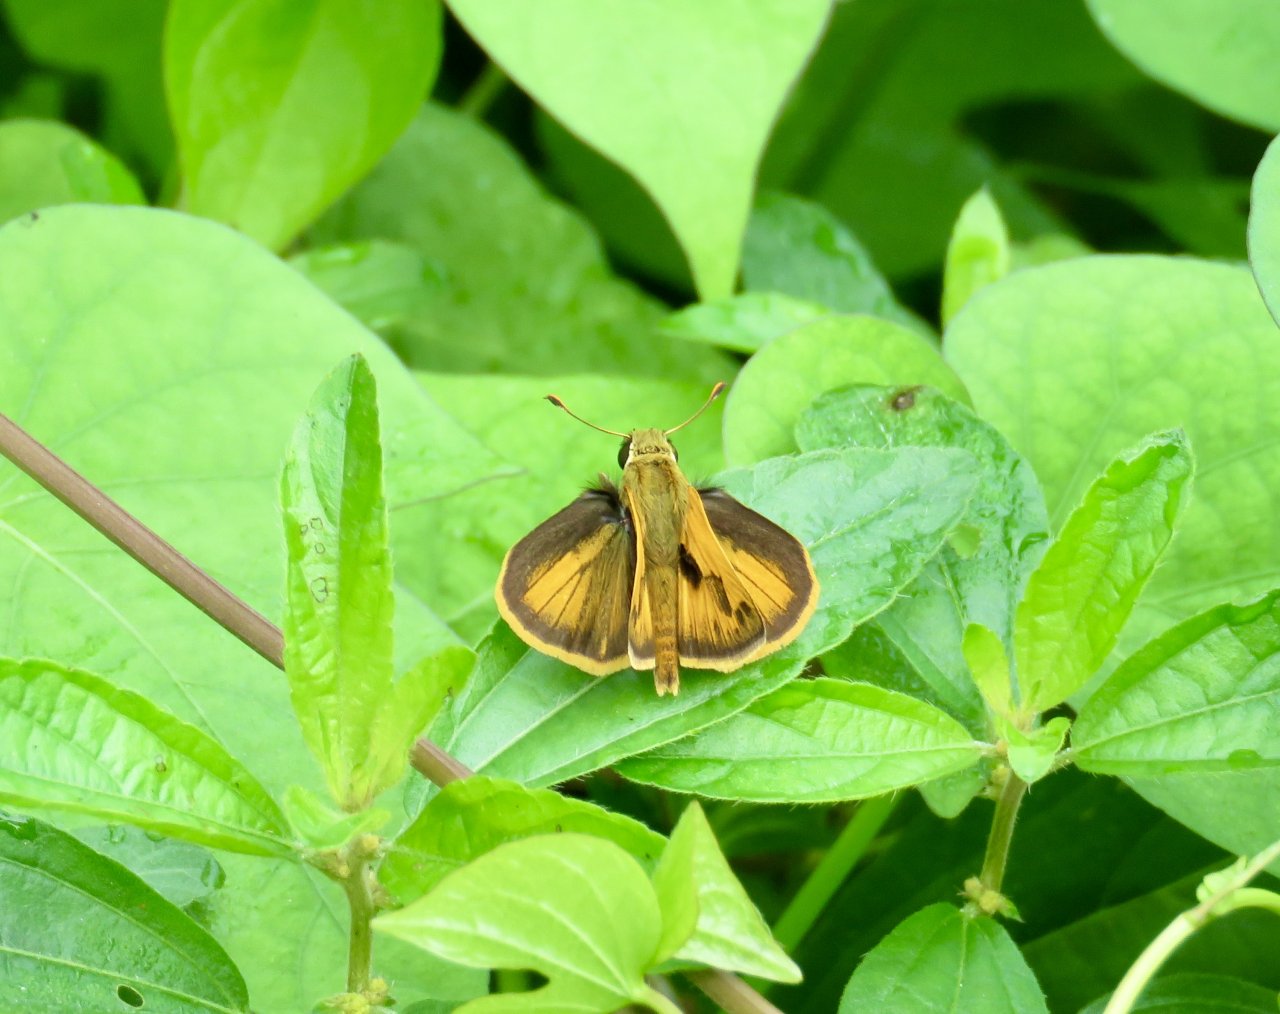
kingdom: Animalia
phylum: Arthropoda
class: Insecta
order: Lepidoptera
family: Hesperiidae
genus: Polites
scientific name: Polites vibex
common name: Whirlabout
